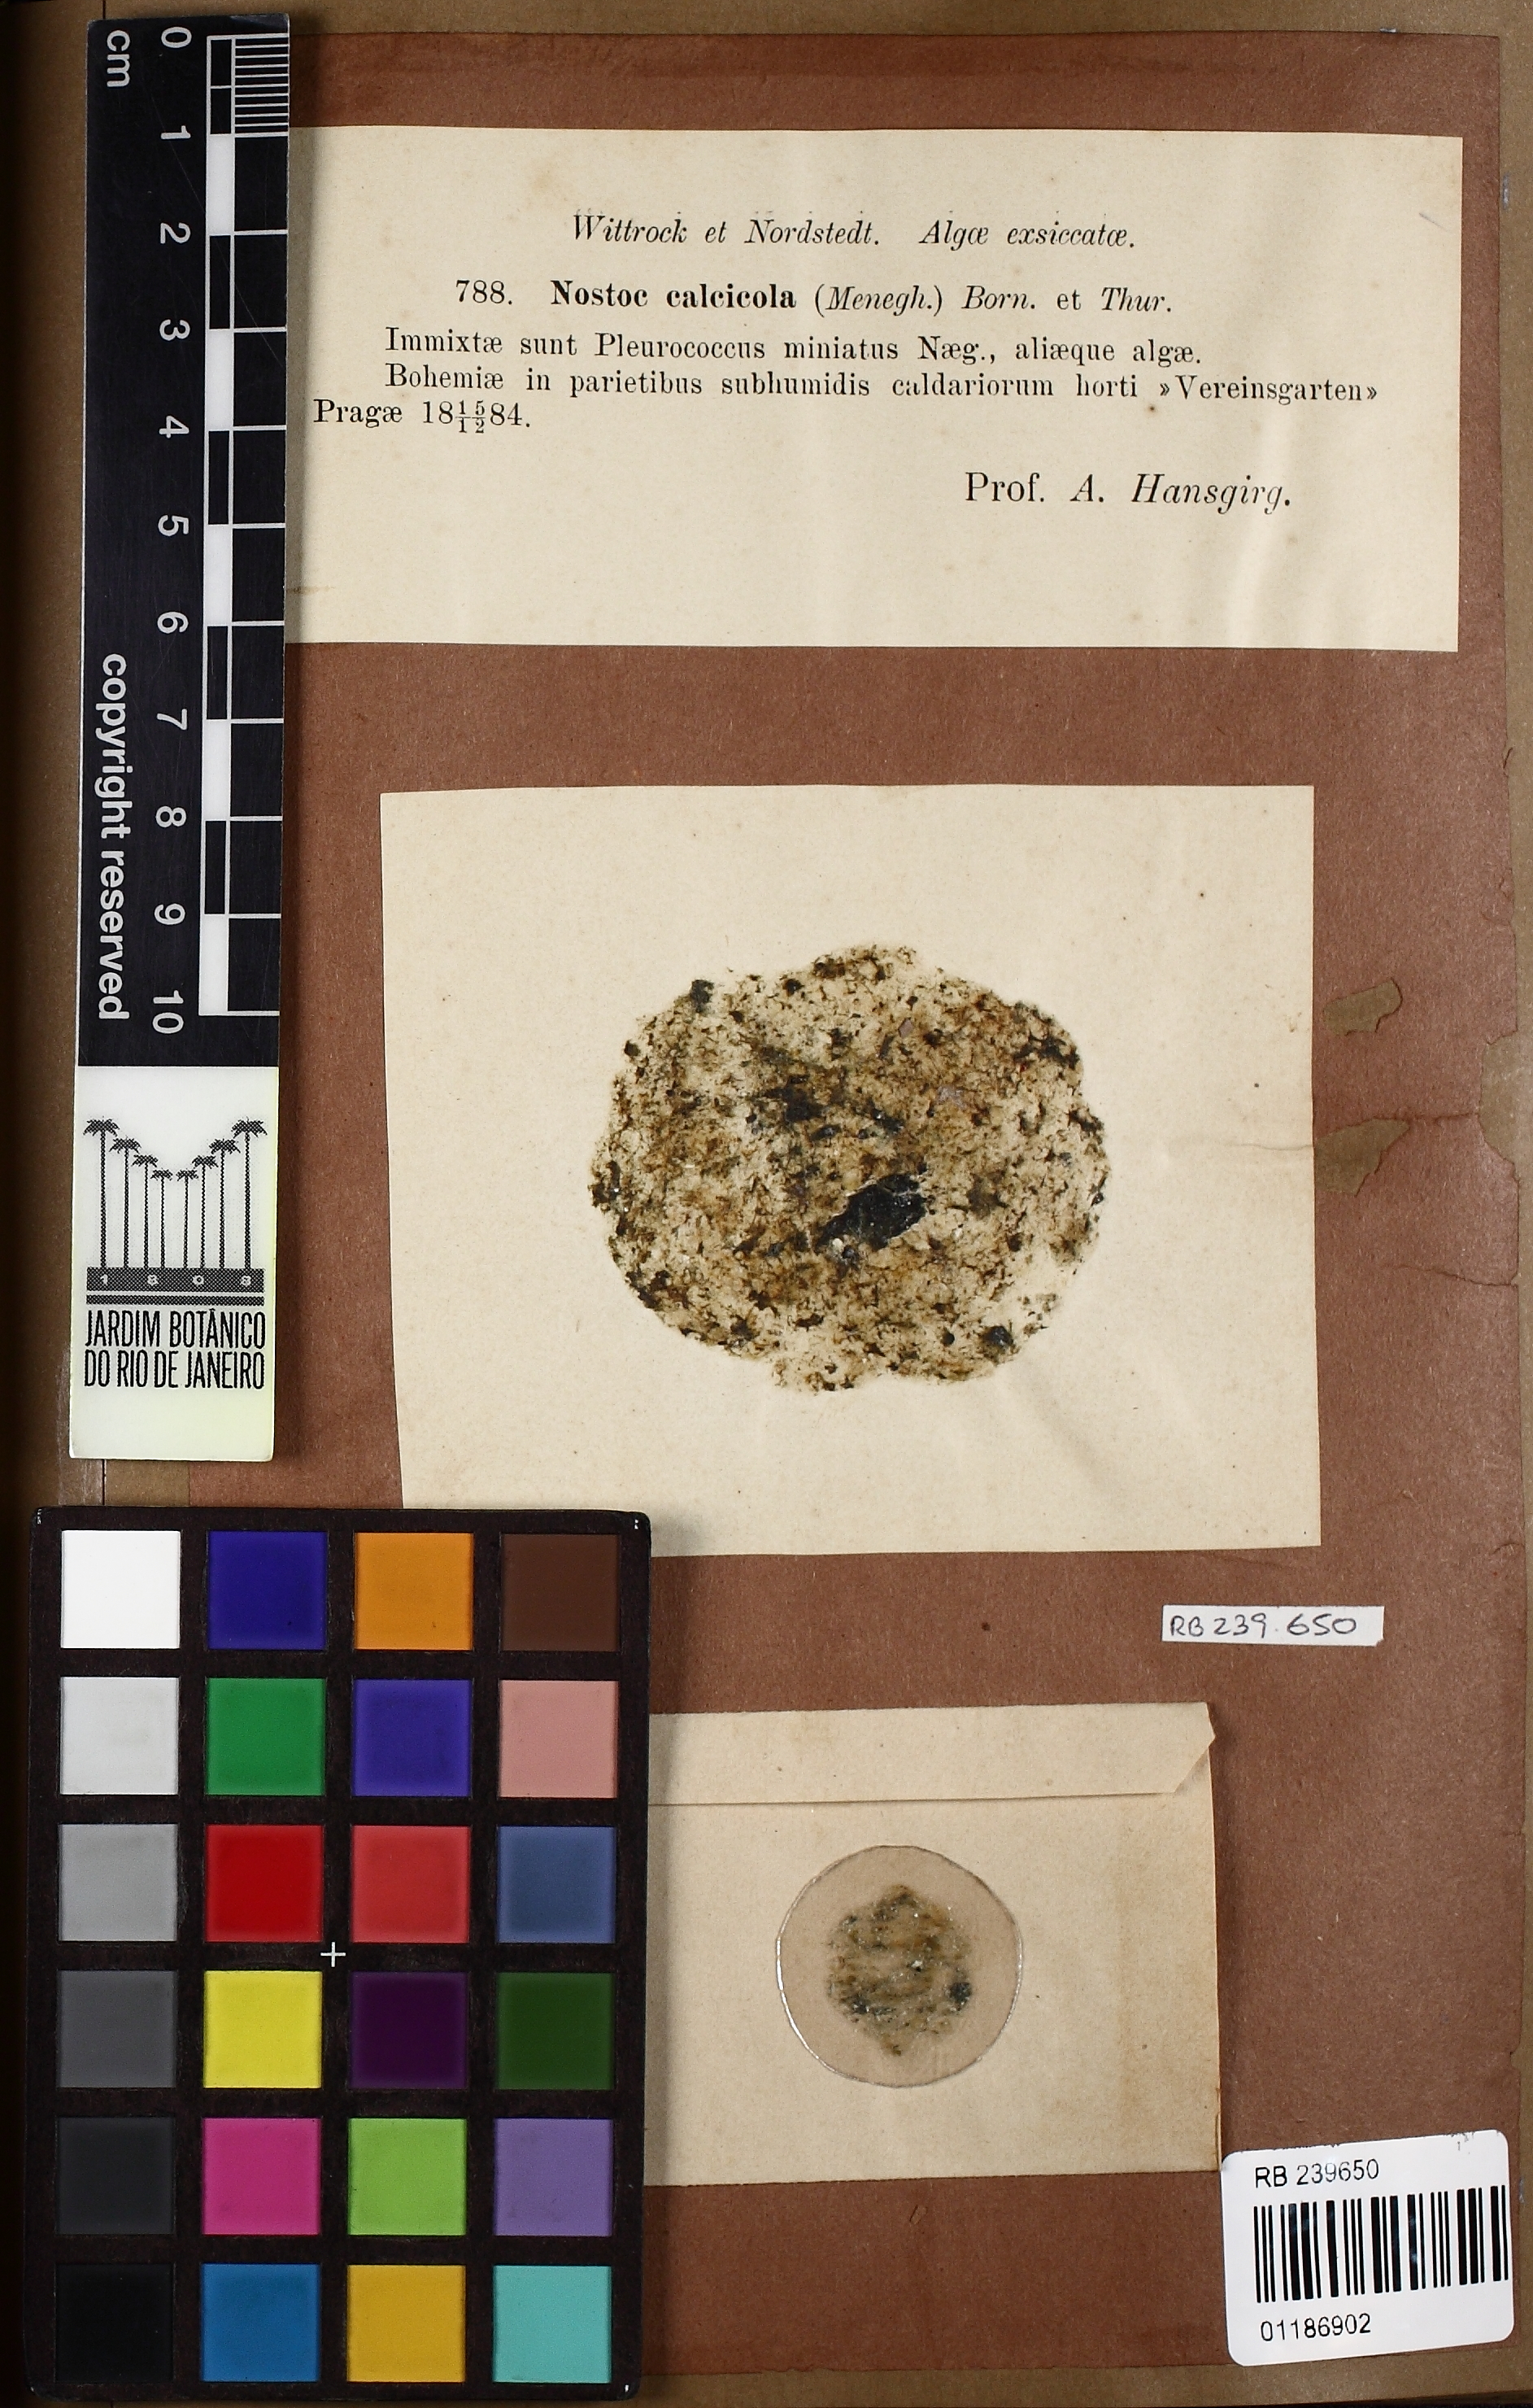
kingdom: Bacteria
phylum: Cyanobacteria
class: Cyanobacteriia
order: Leptolyngbyales
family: Trichocoleusaceae
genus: Schizothrix
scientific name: Schizothrix calcicola
